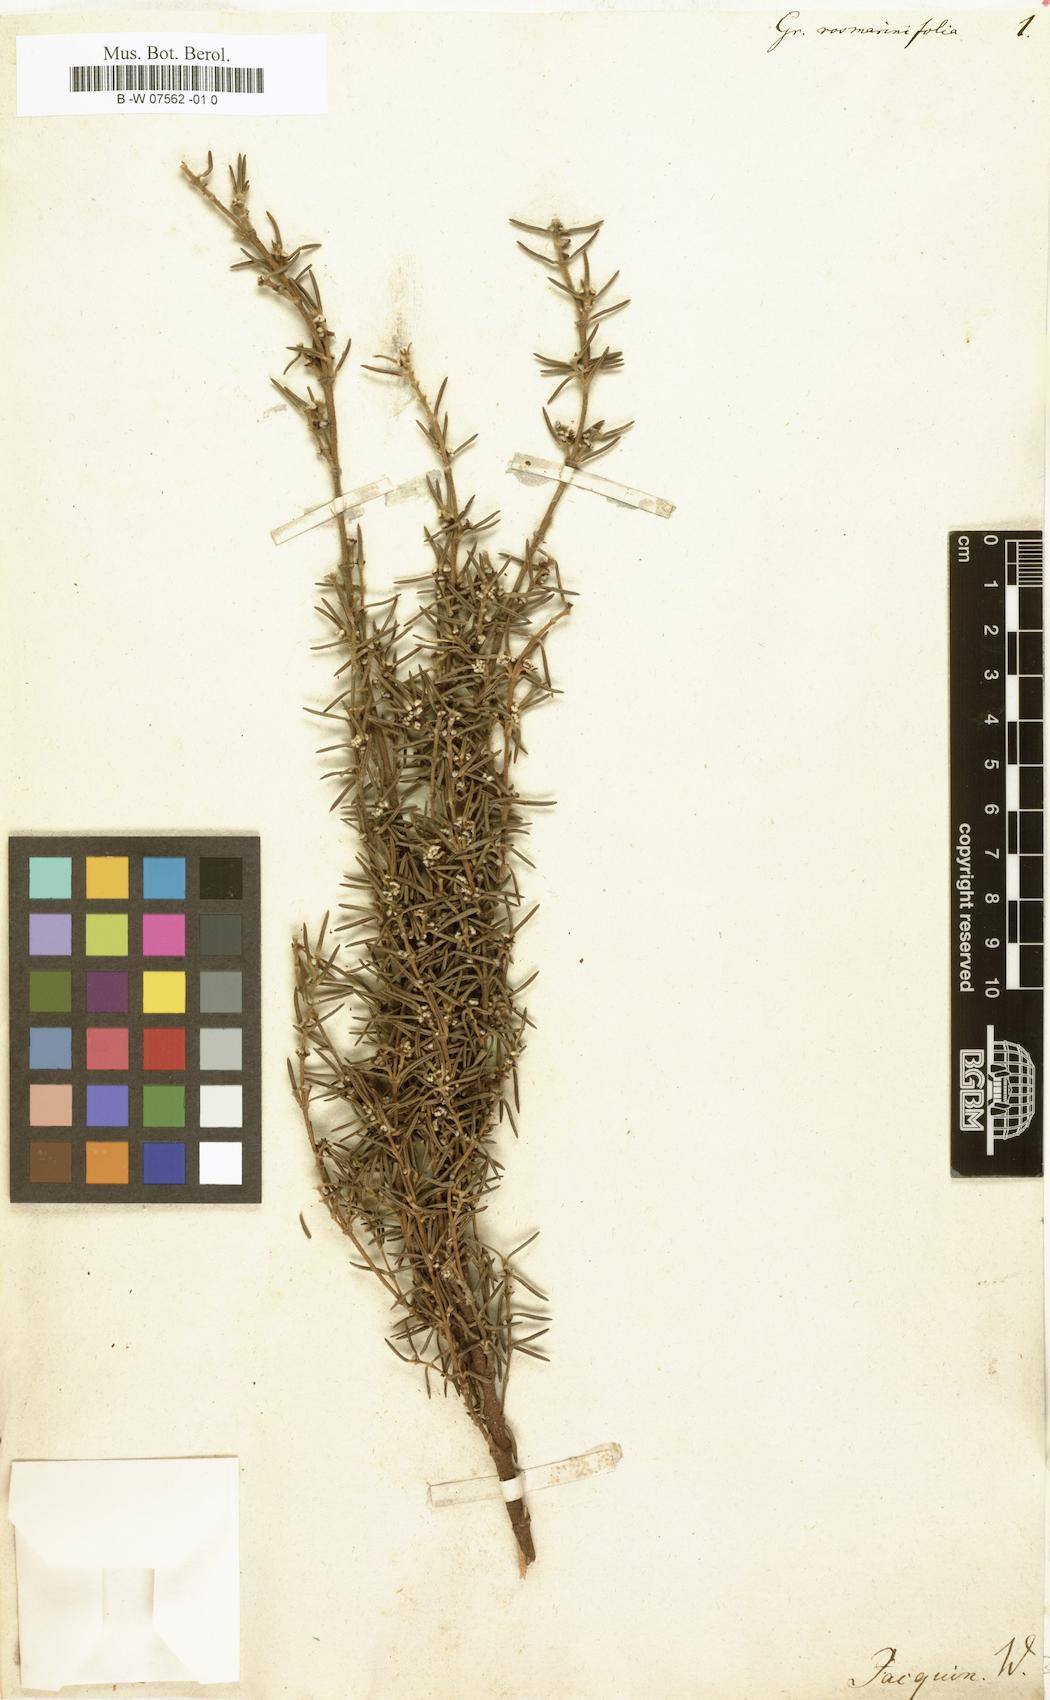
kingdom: Plantae
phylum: Tracheophyta
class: Magnoliopsida
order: Cornales
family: Grubbiaceae
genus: Grubbia
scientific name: Grubbia rosmarinifolia
